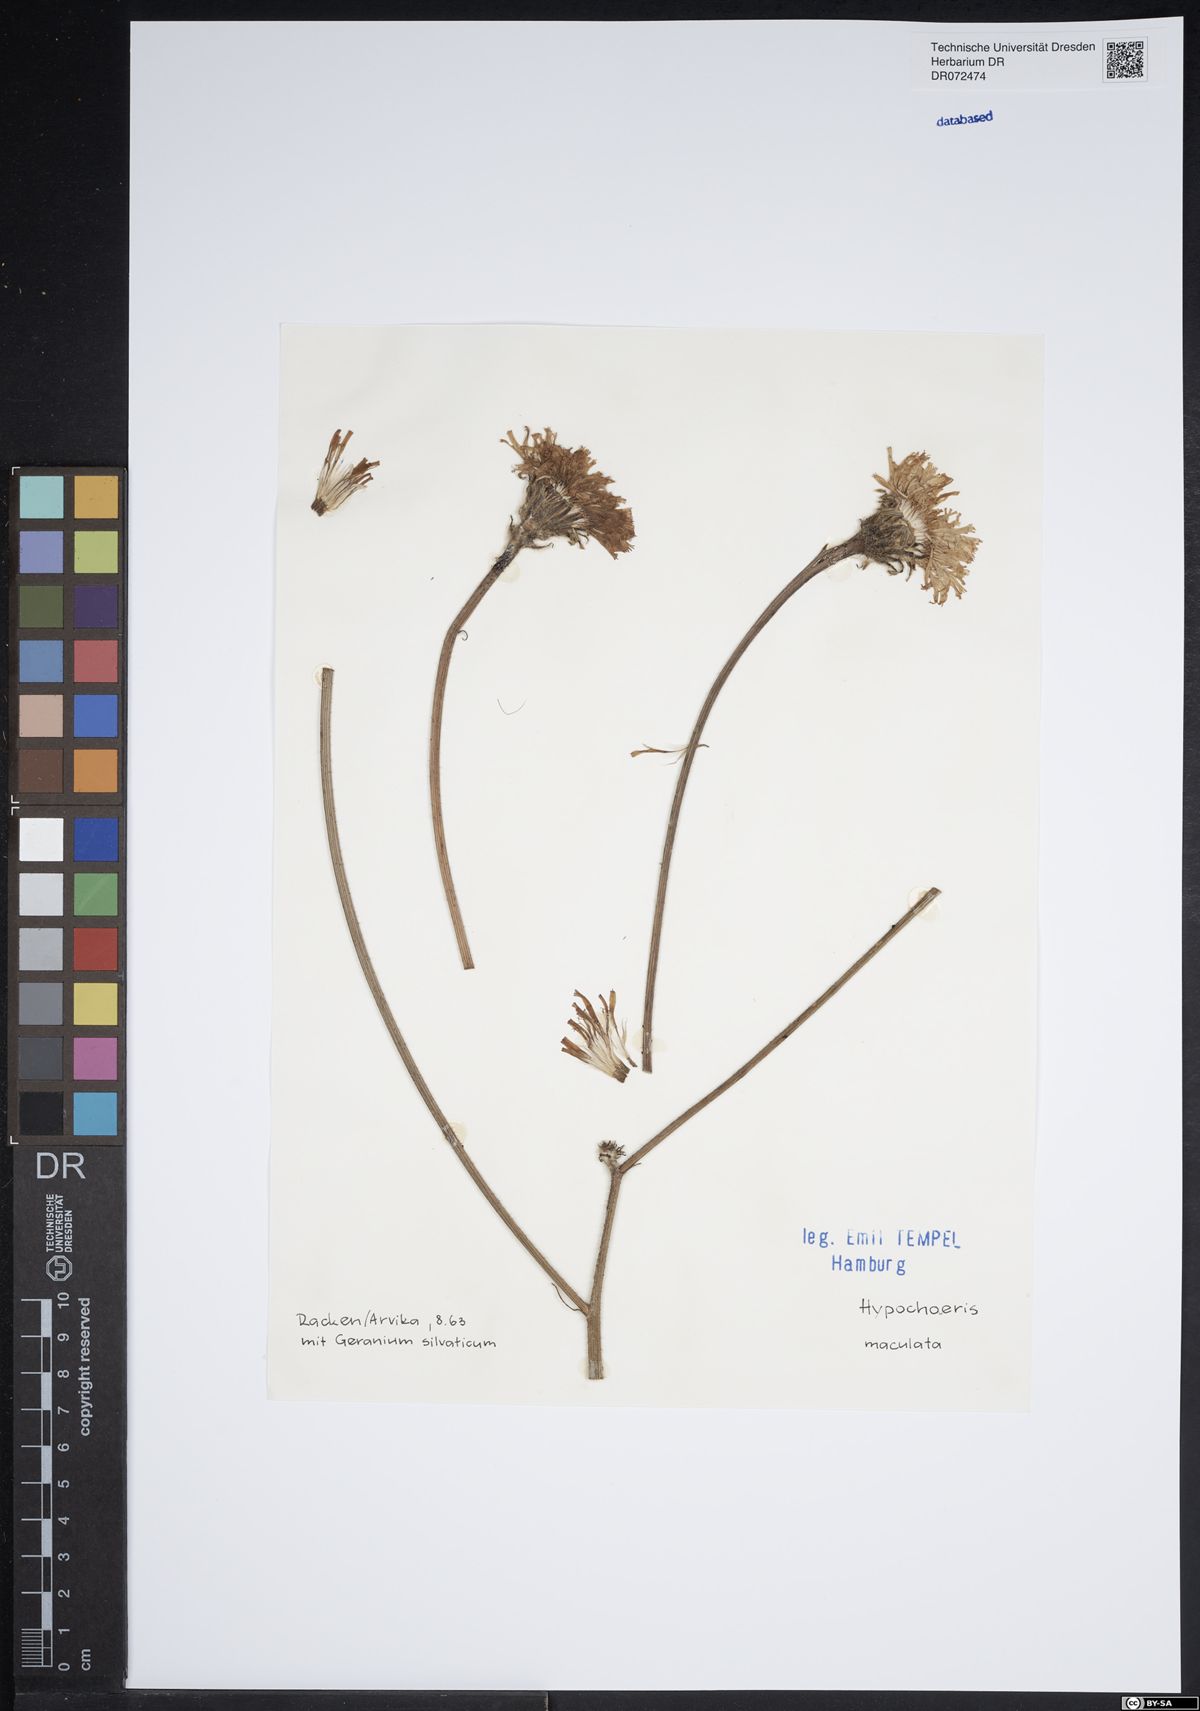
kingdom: Plantae
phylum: Tracheophyta
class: Magnoliopsida
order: Asterales
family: Asteraceae
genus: Trommsdorffia
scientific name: Trommsdorffia maculata
